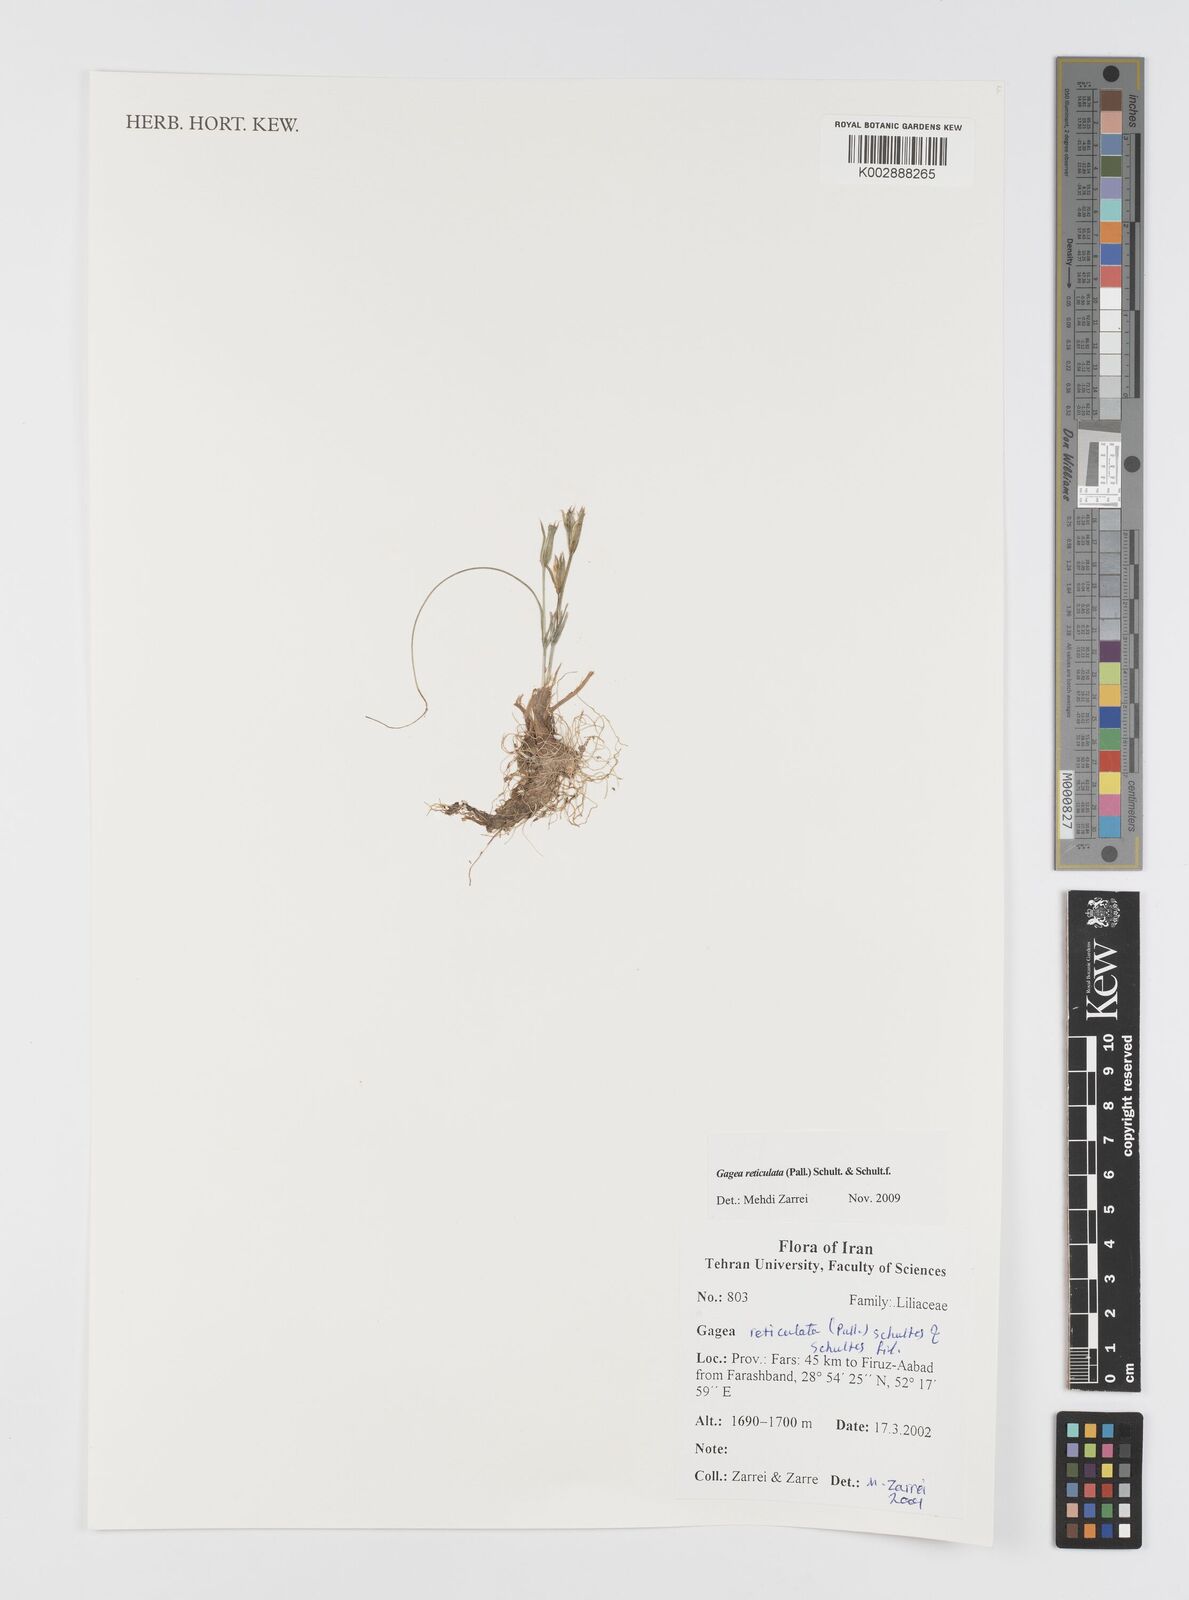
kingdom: Plantae
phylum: Tracheophyta
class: Liliopsida
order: Liliales
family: Liliaceae
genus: Gagea
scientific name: Gagea reticulata
